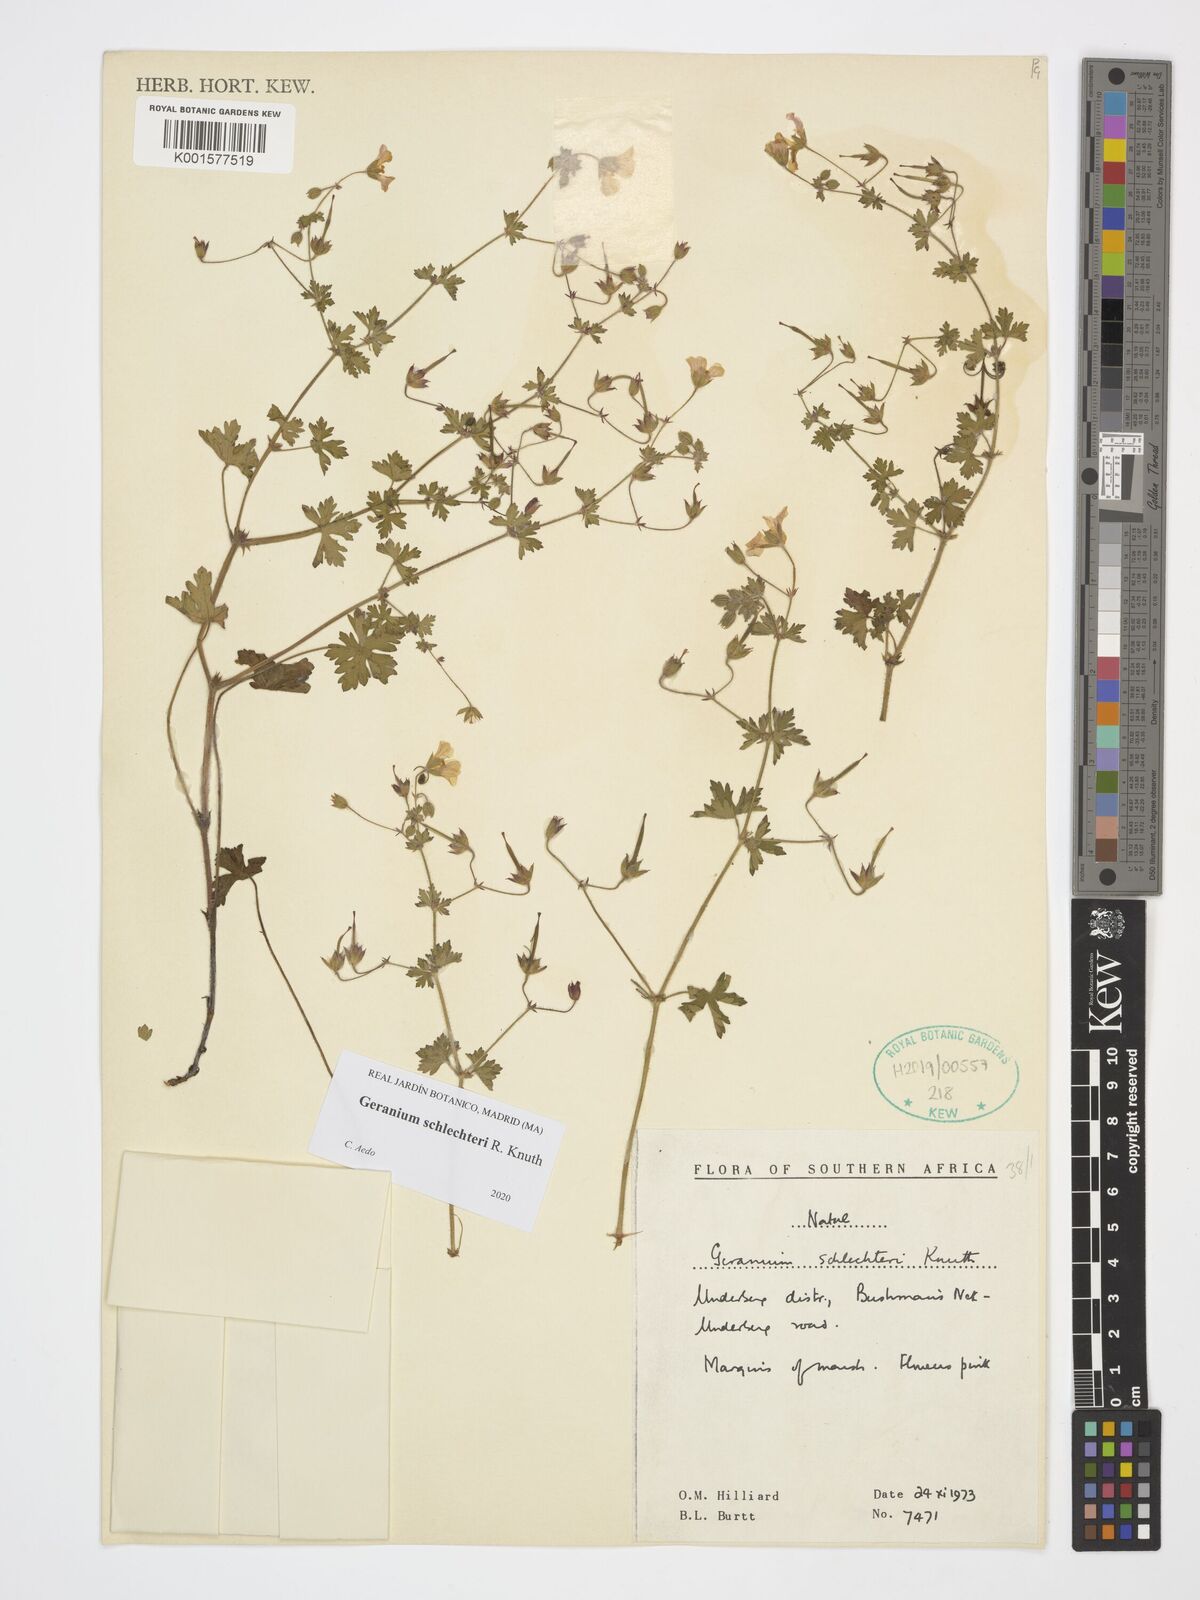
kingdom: Plantae
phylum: Tracheophyta
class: Magnoliopsida
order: Geraniales
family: Geraniaceae
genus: Geranium
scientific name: Geranium schlechteri
